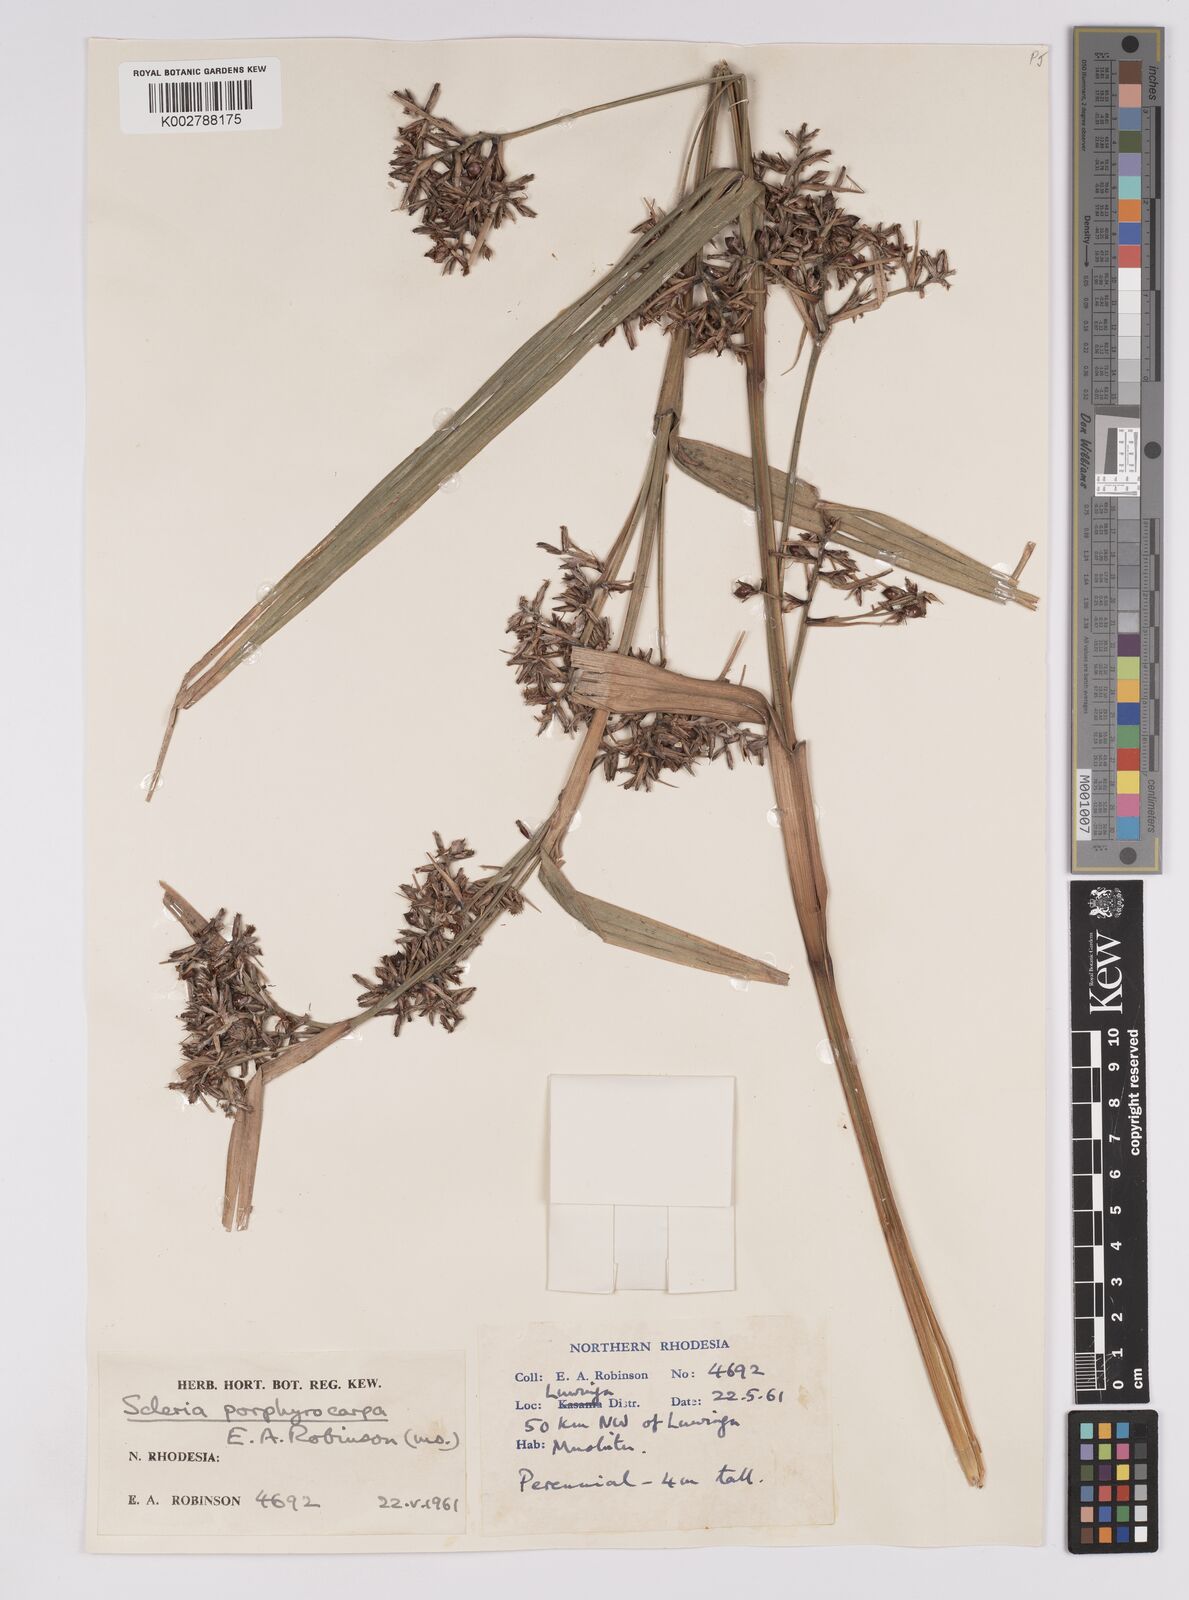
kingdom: Plantae
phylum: Tracheophyta
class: Liliopsida
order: Poales
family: Cyperaceae
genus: Scleria
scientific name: Scleria porphyrocarpa
